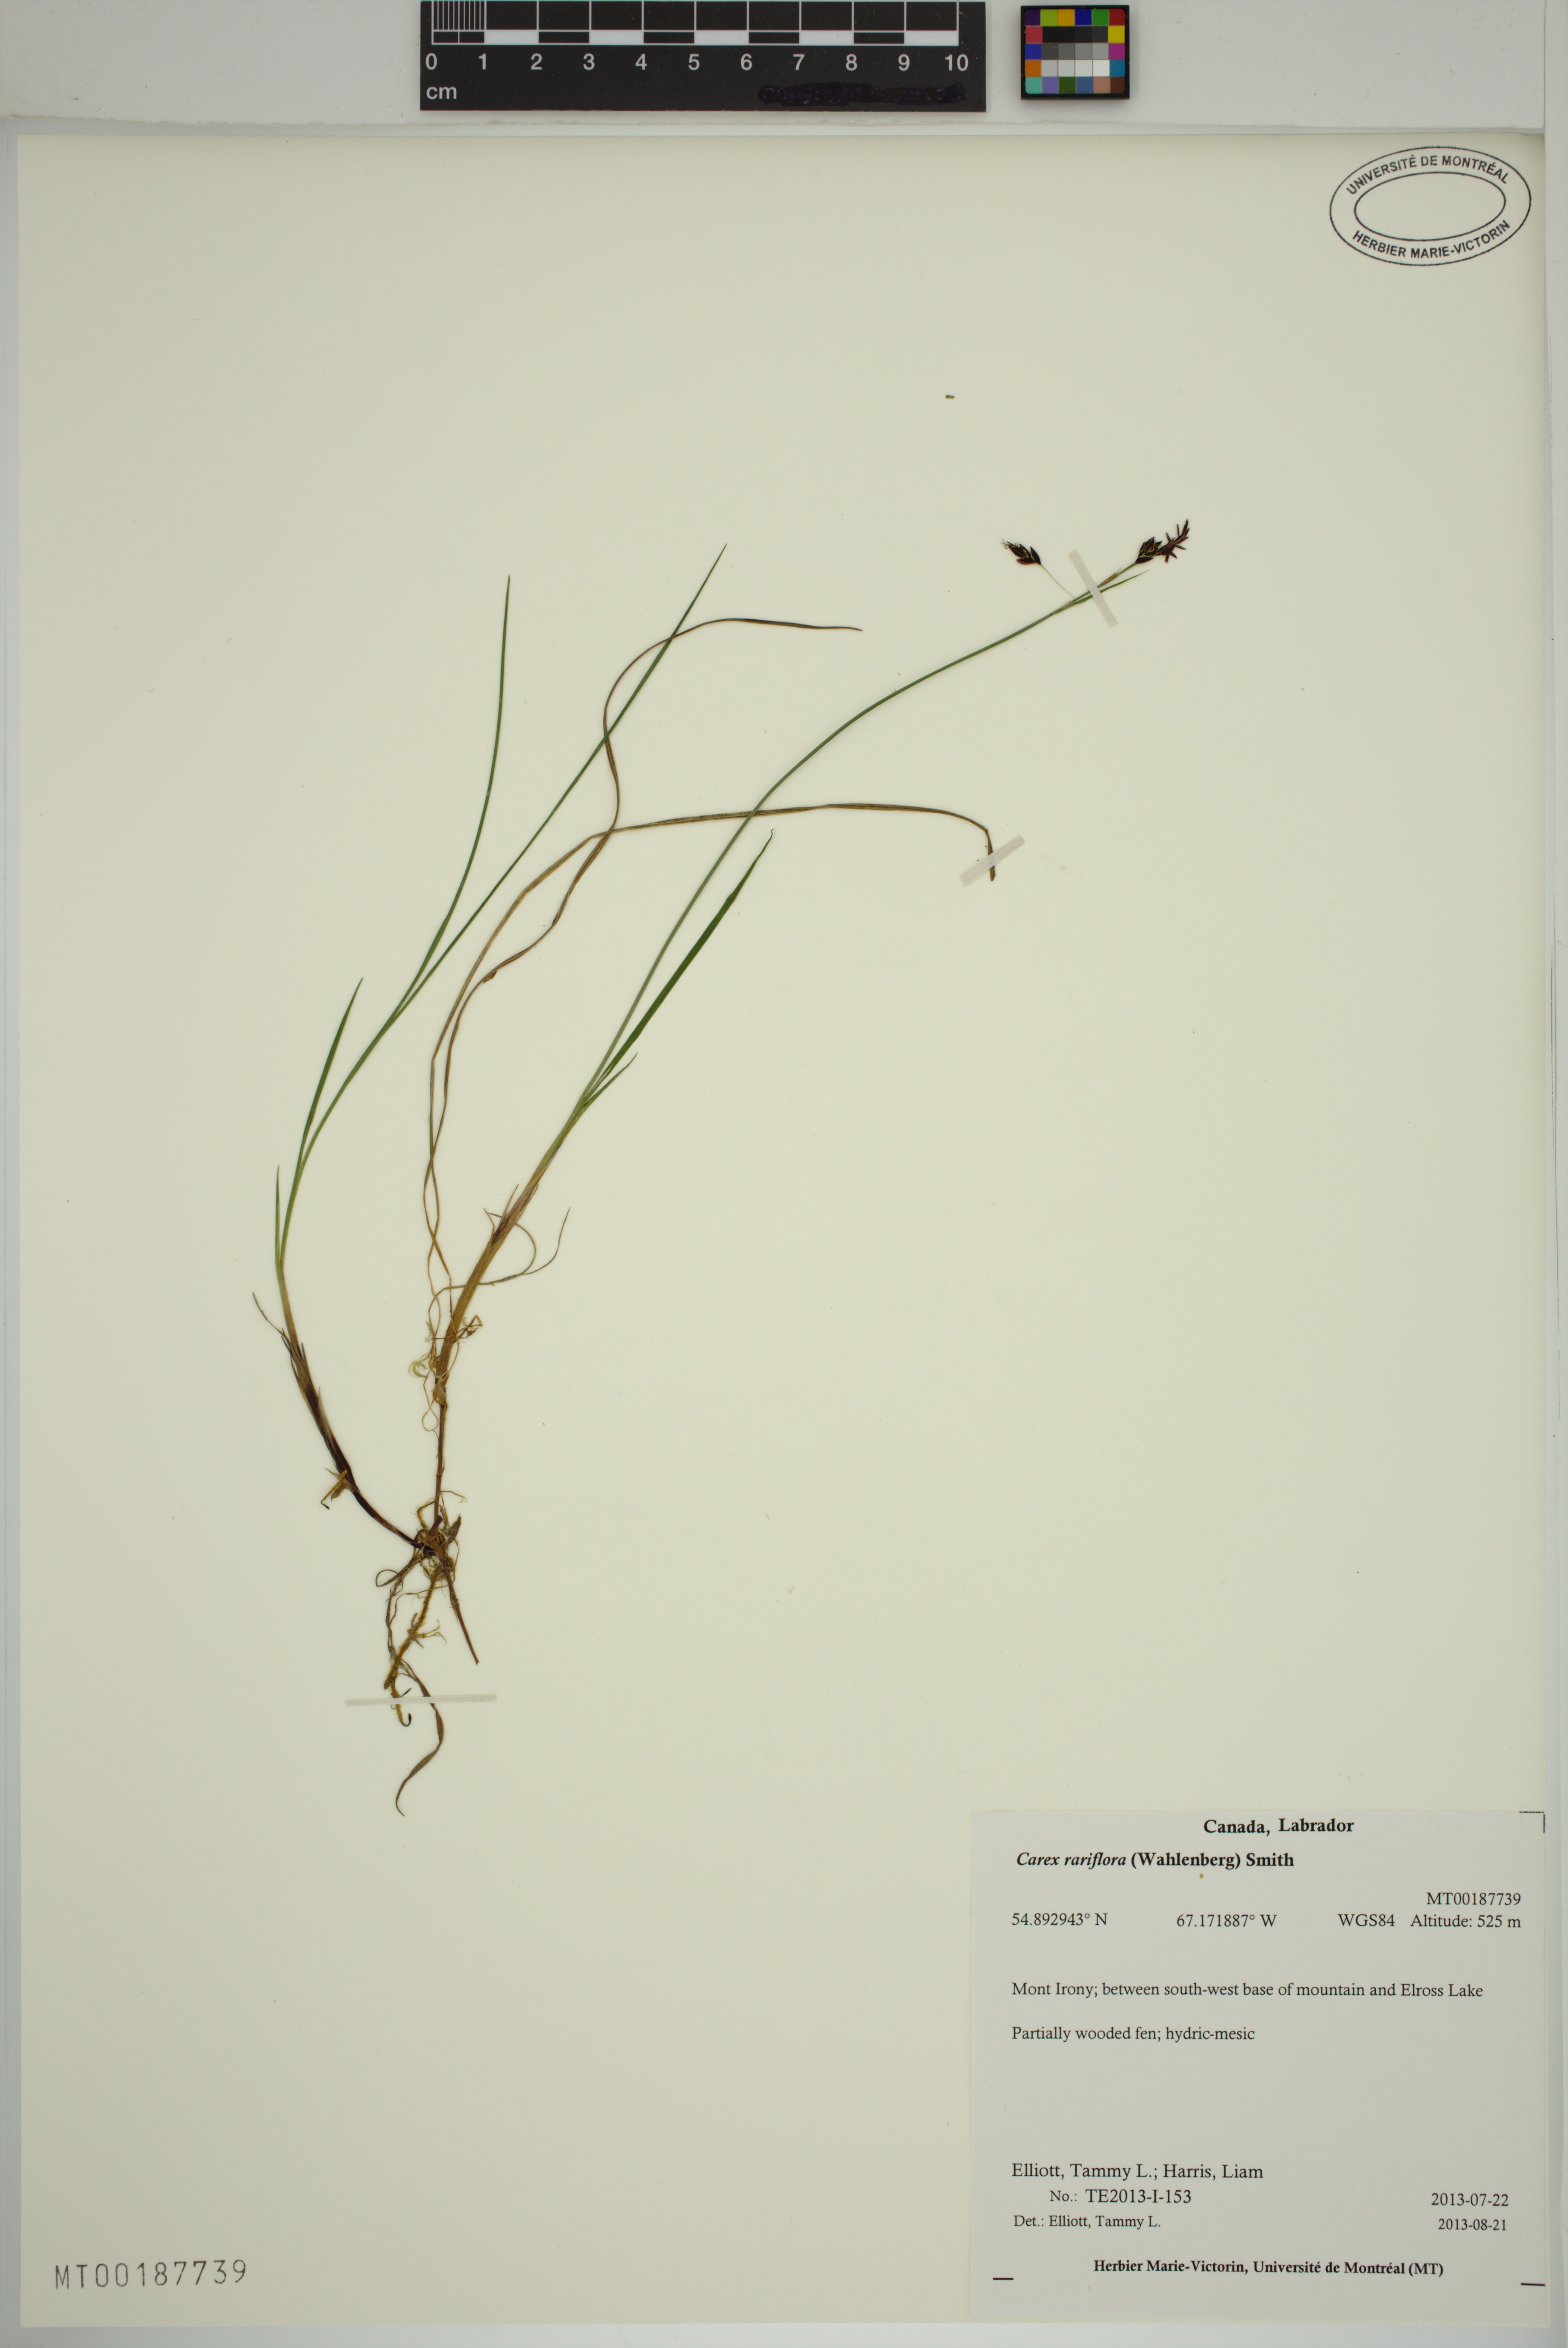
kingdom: Plantae
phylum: Tracheophyta
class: Liliopsida
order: Poales
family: Cyperaceae
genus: Carex
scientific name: Carex rariflora
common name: Loose-flowered alpine sedge
